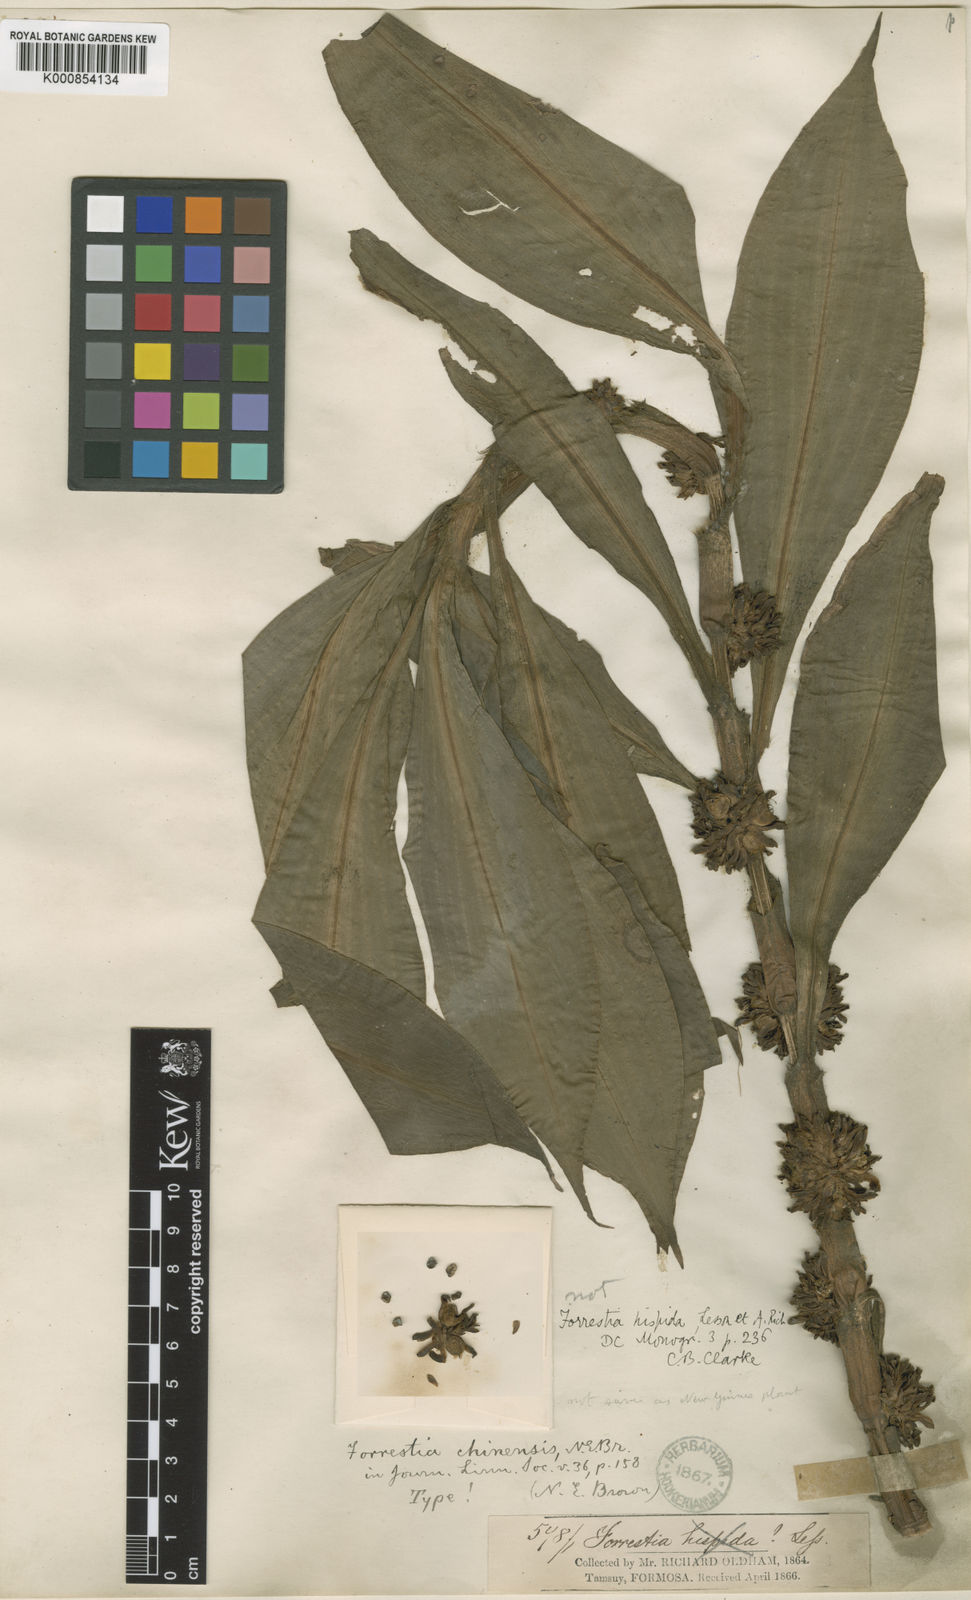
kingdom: Plantae
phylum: Tracheophyta
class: Liliopsida
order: Commelinales
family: Commelinaceae
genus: Amischotolype
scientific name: Amischotolype hispida
